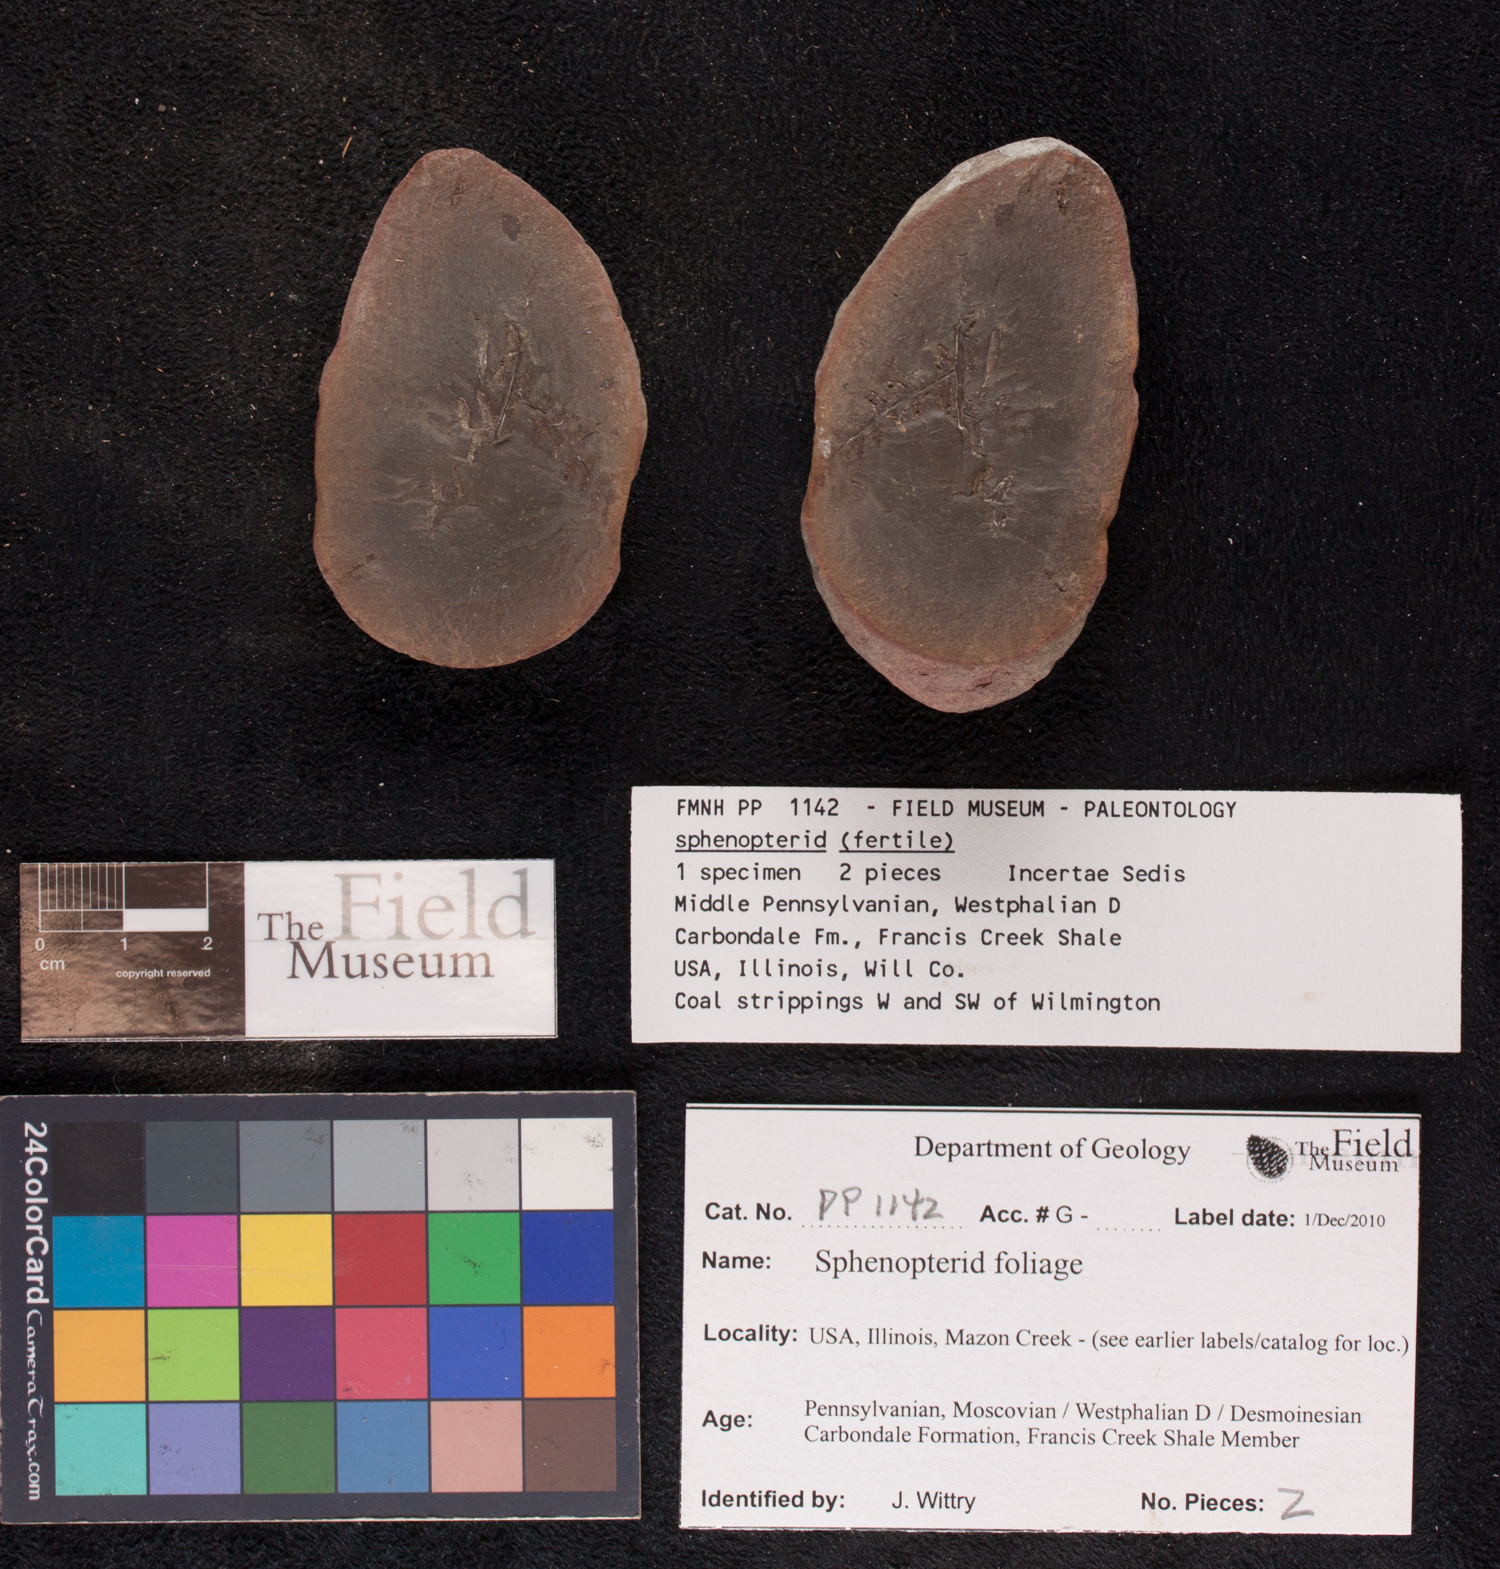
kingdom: Plantae
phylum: Tracheophyta
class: Polypodiopsida
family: Tedeleaceae
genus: Senftenbergia
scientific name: Senftenbergia
